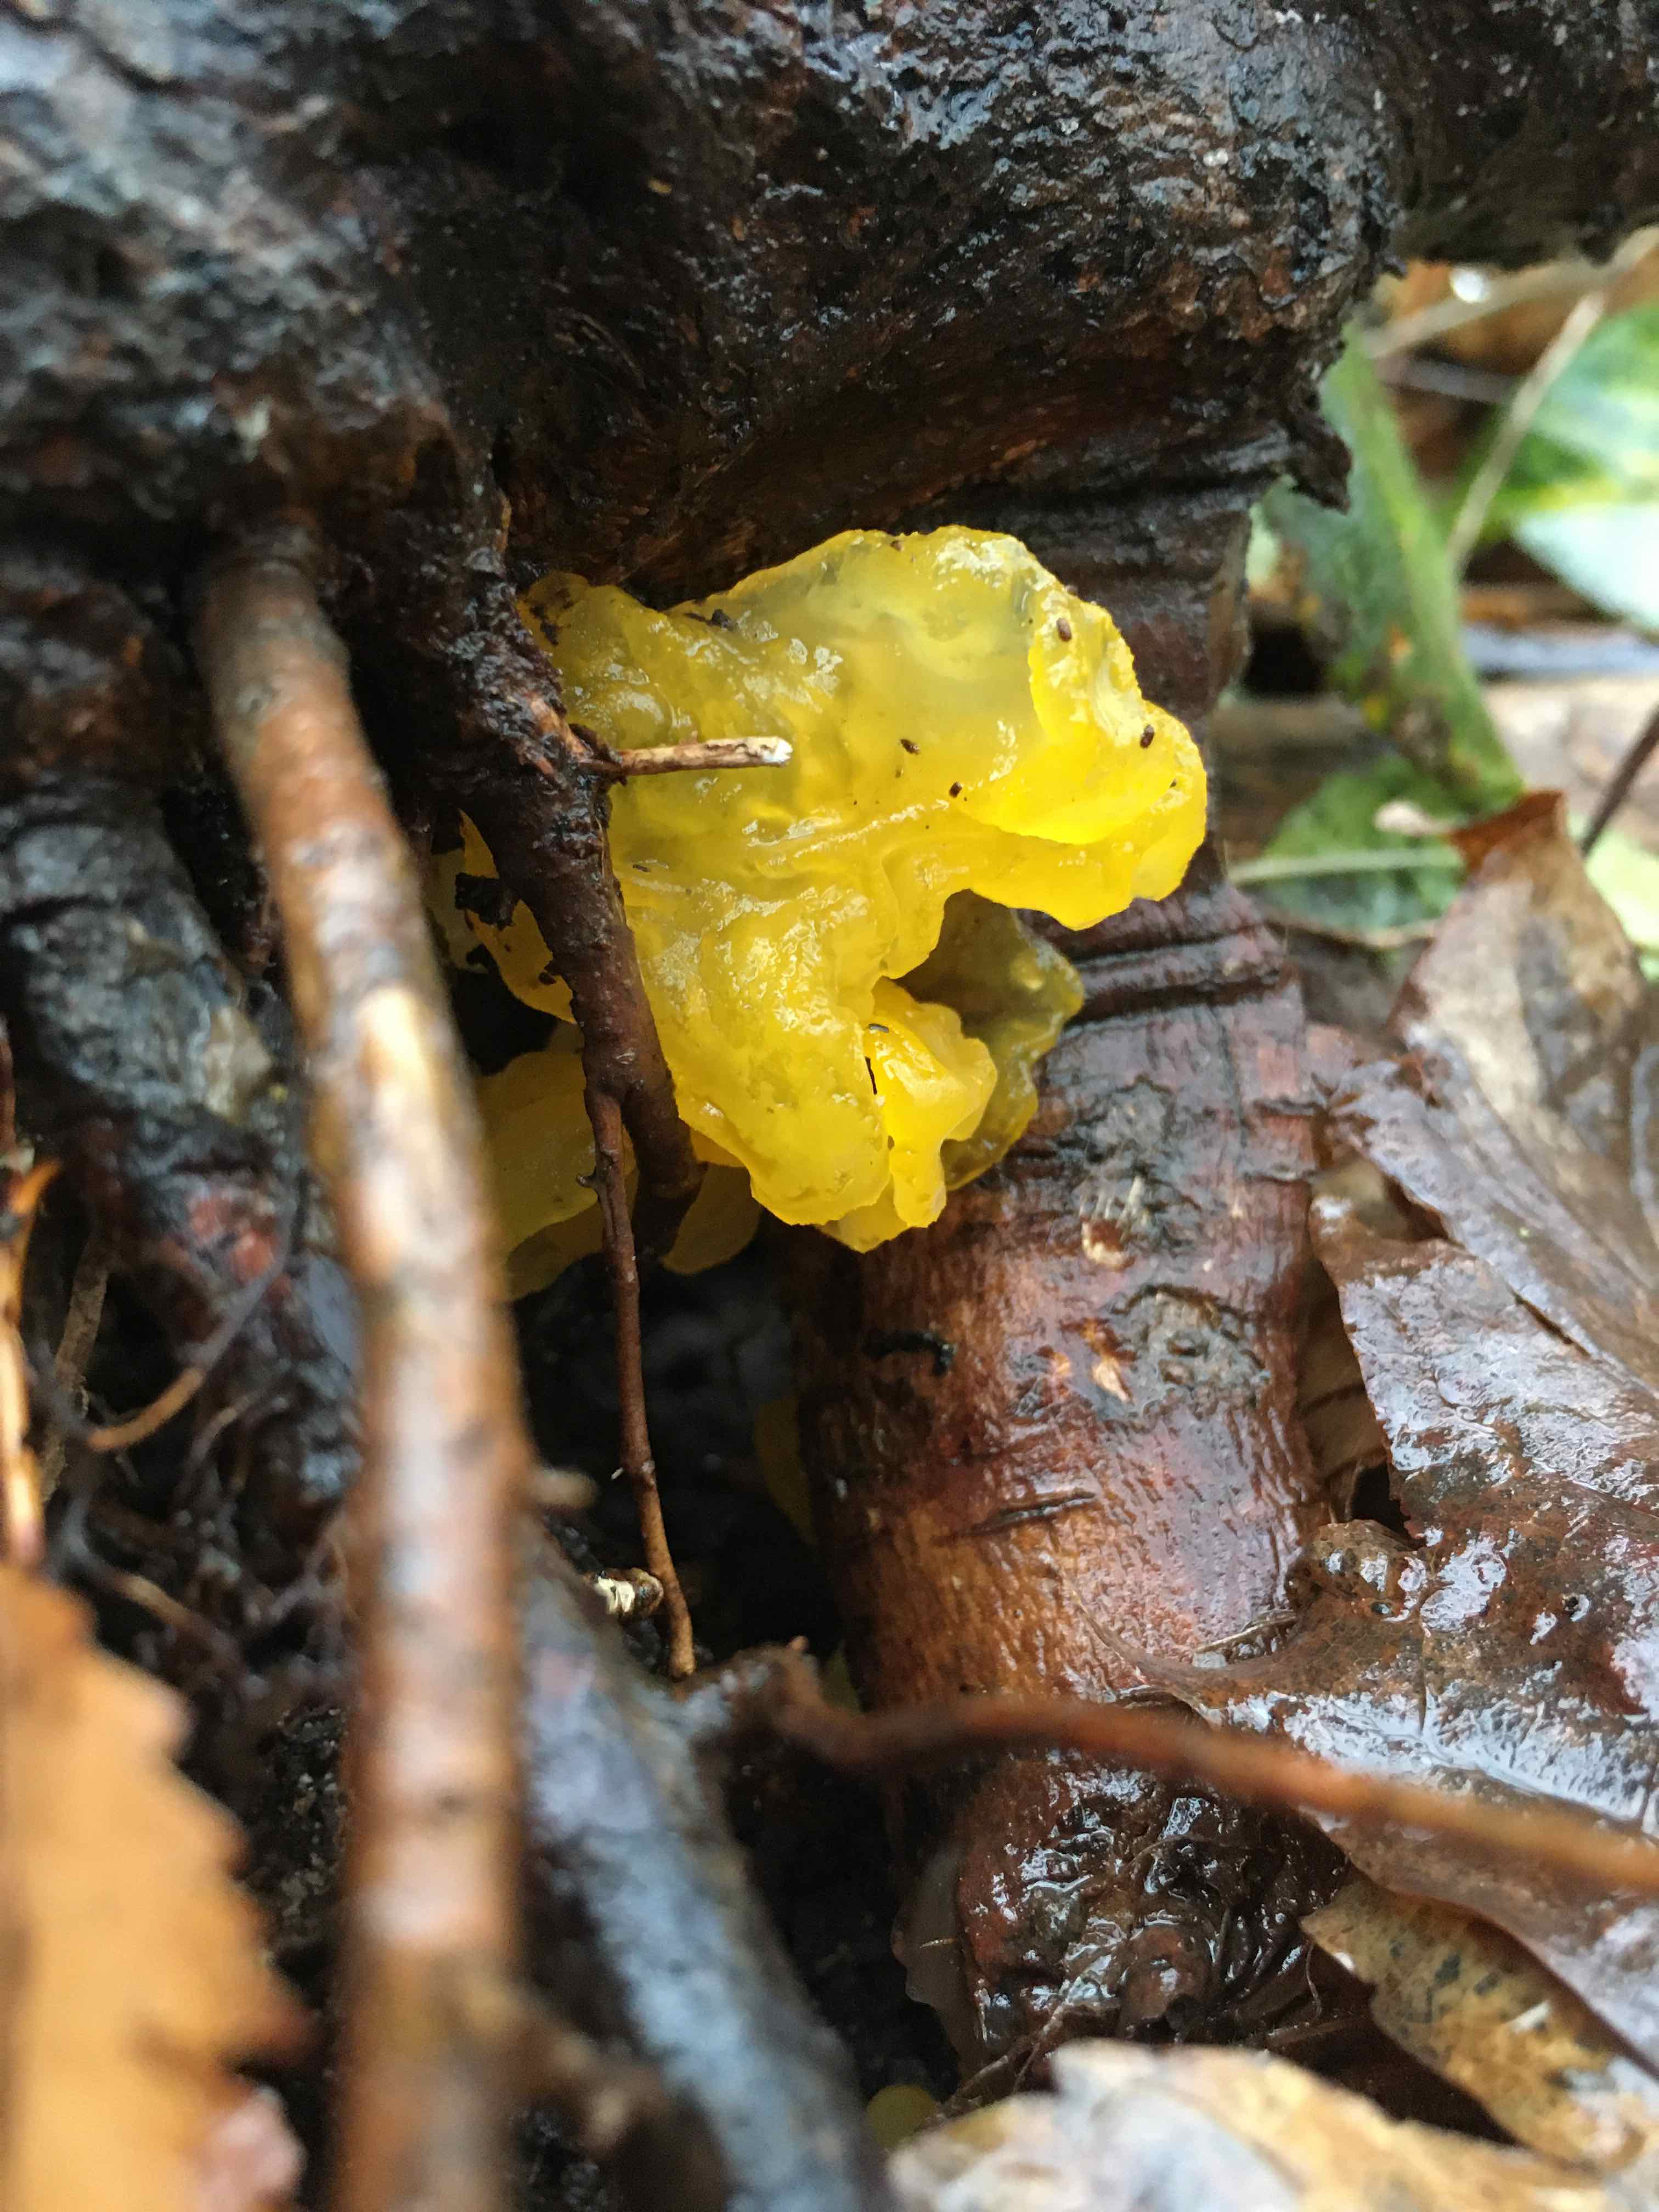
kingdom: Fungi
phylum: Basidiomycota
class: Tremellomycetes
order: Tremellales
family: Tremellaceae
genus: Tremella
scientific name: Tremella mesenterica
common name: gul bævresvamp
